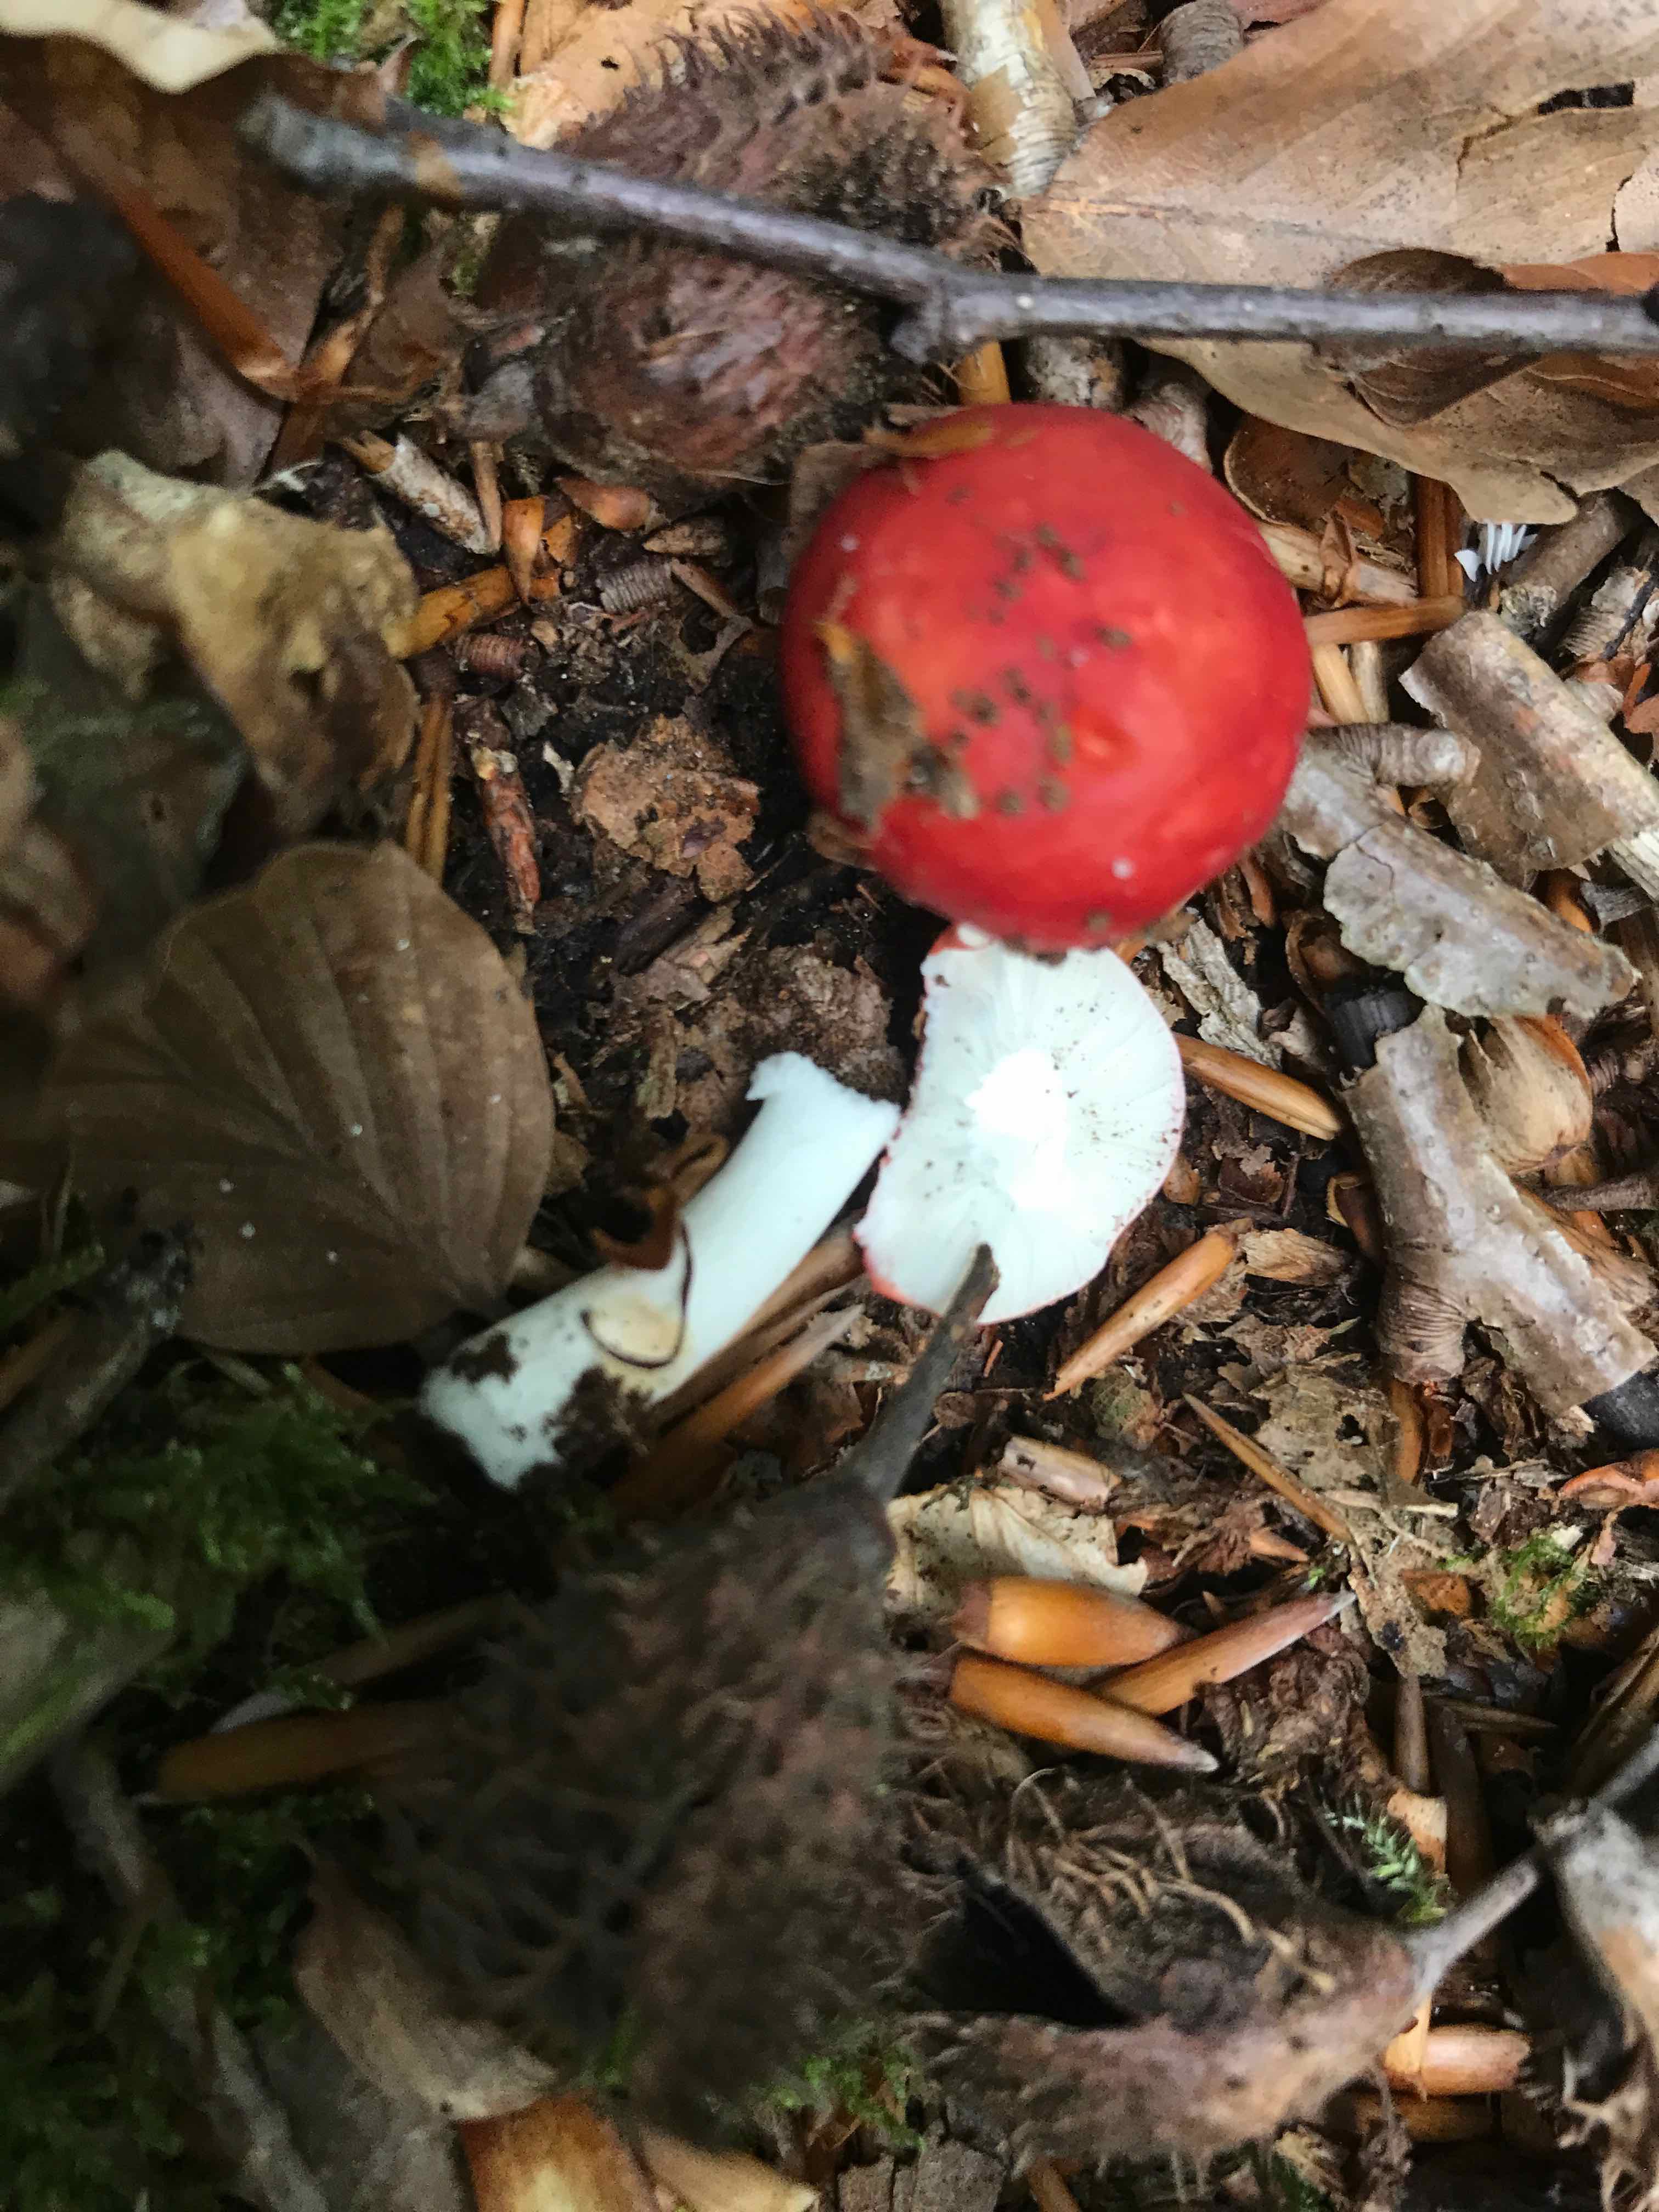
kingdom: Fungi
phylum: Basidiomycota
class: Agaricomycetes
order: Russulales
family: Russulaceae
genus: Russula
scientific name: Russula nobilis
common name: lille gift-skørhat
